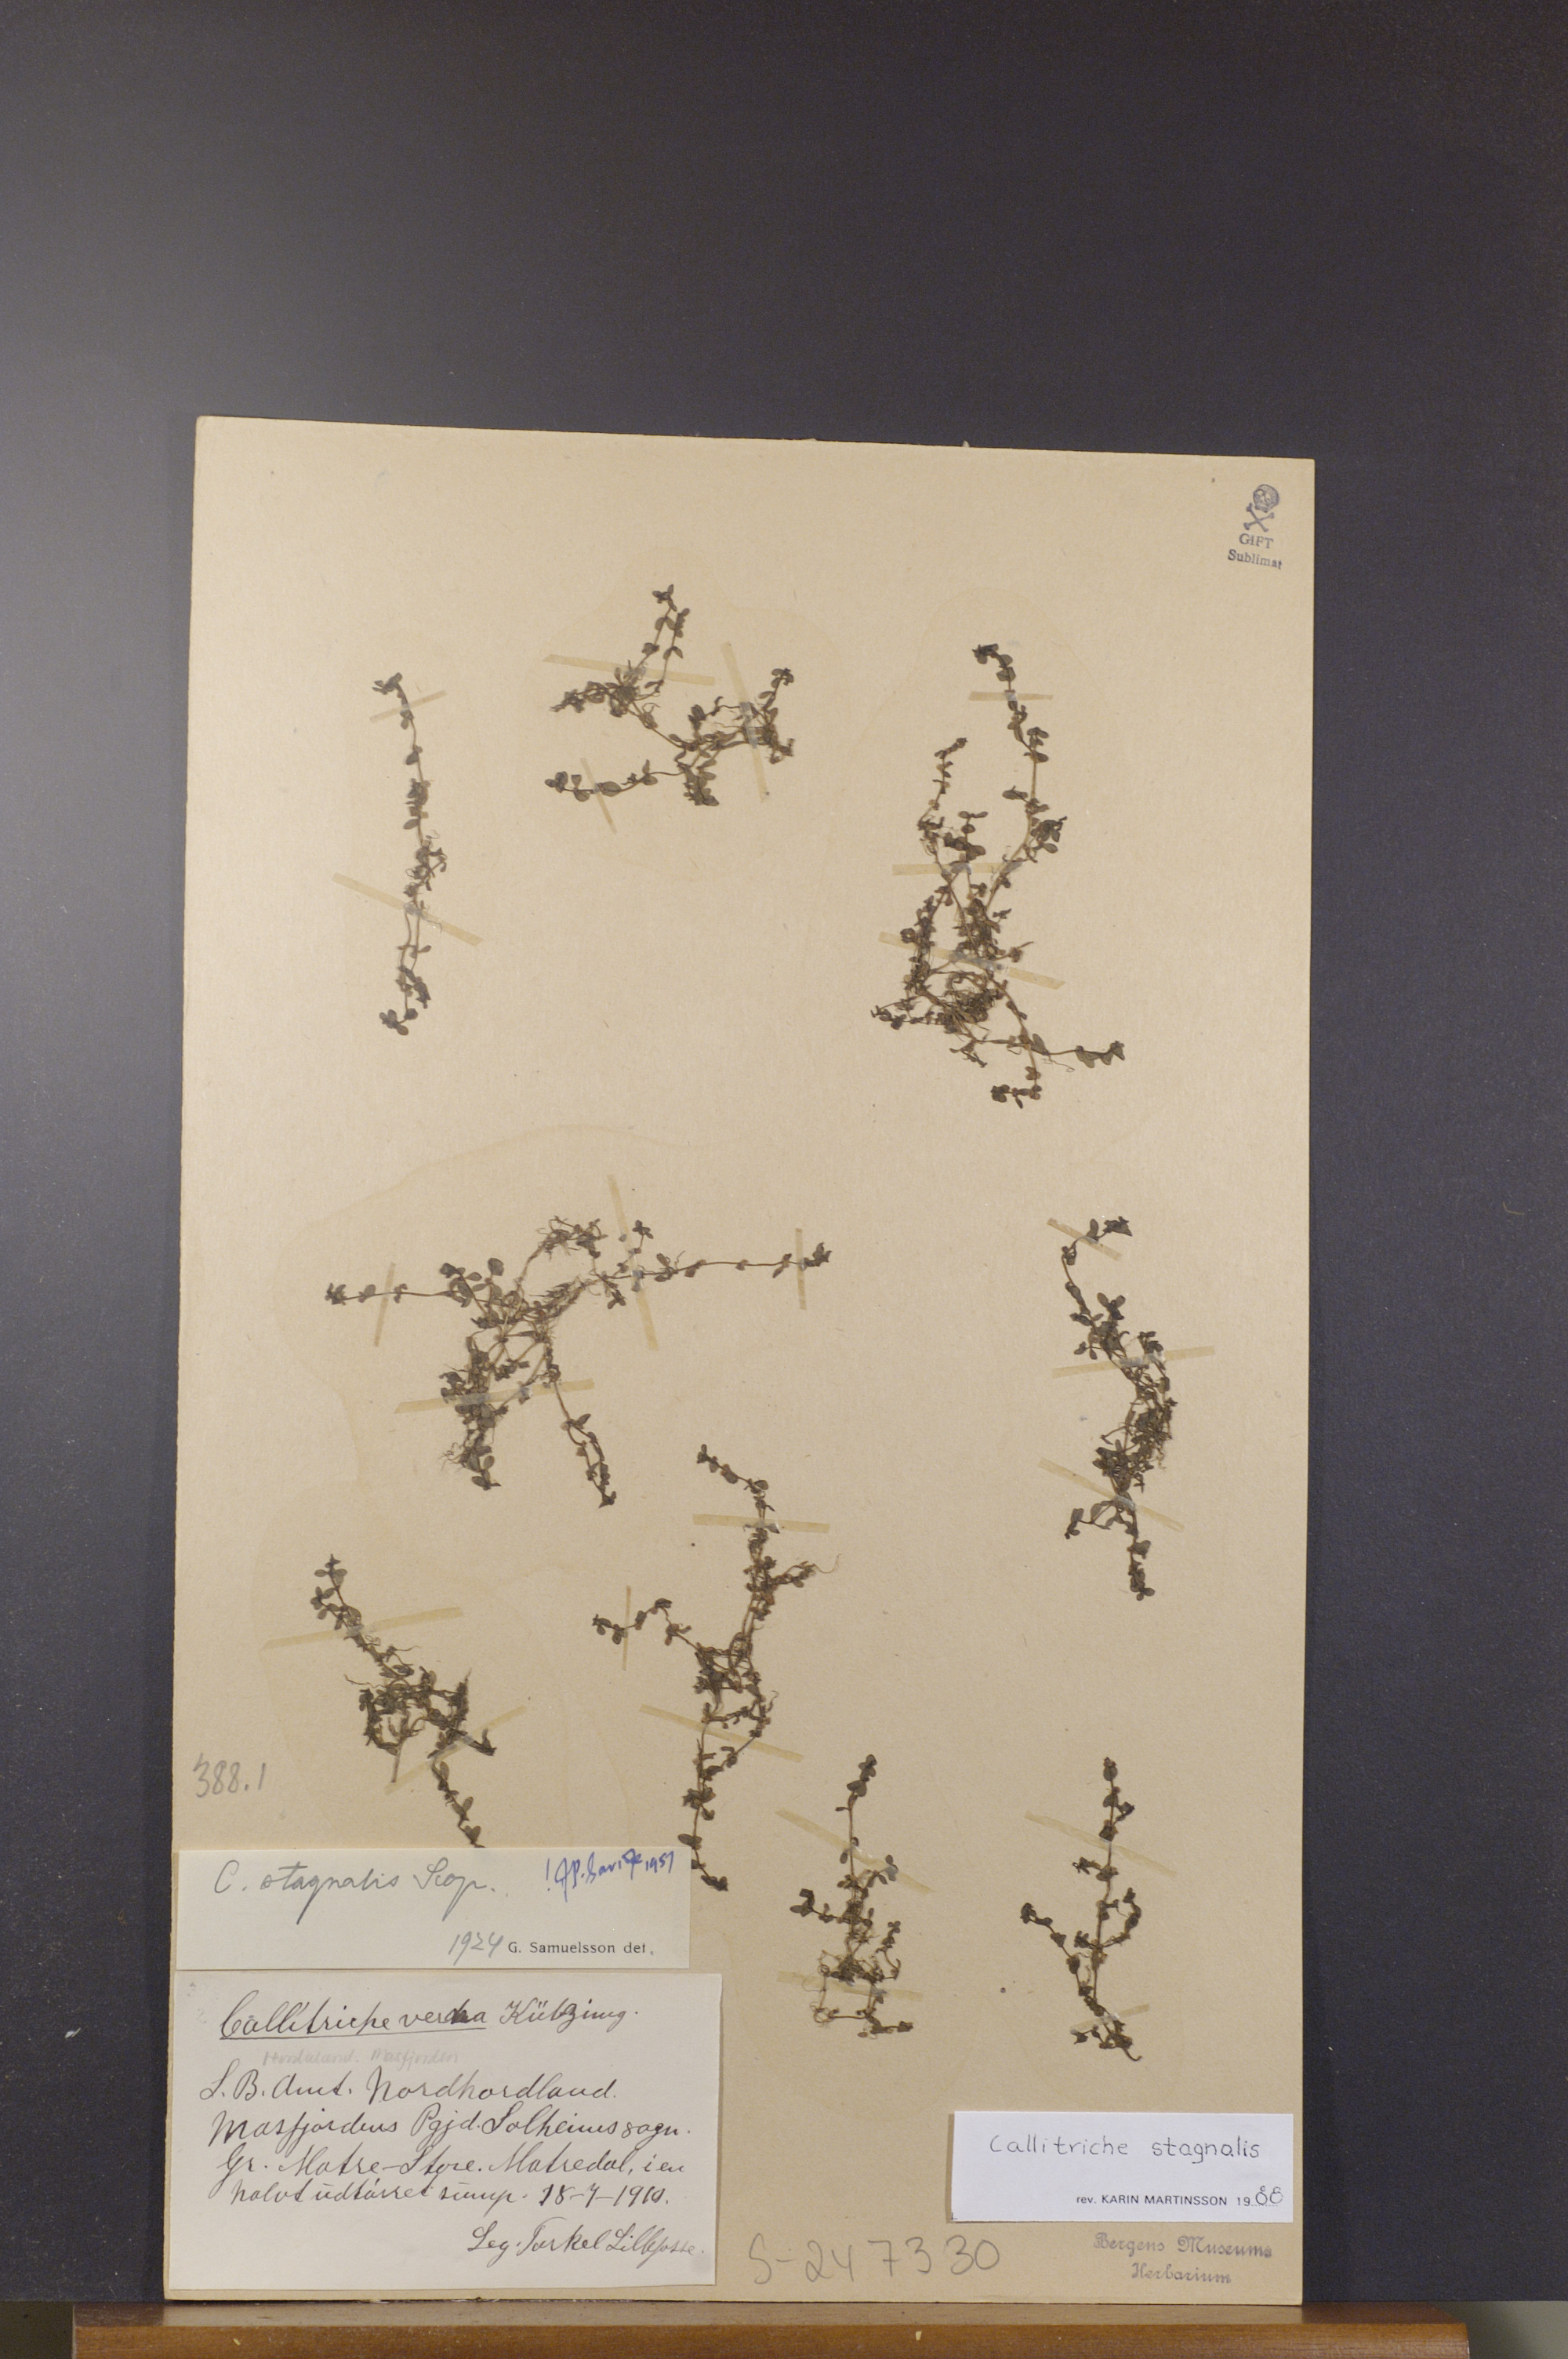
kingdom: Plantae
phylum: Tracheophyta
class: Magnoliopsida
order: Lamiales
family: Plantaginaceae
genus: Callitriche
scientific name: Callitriche stagnalis
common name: Common water-starwort
